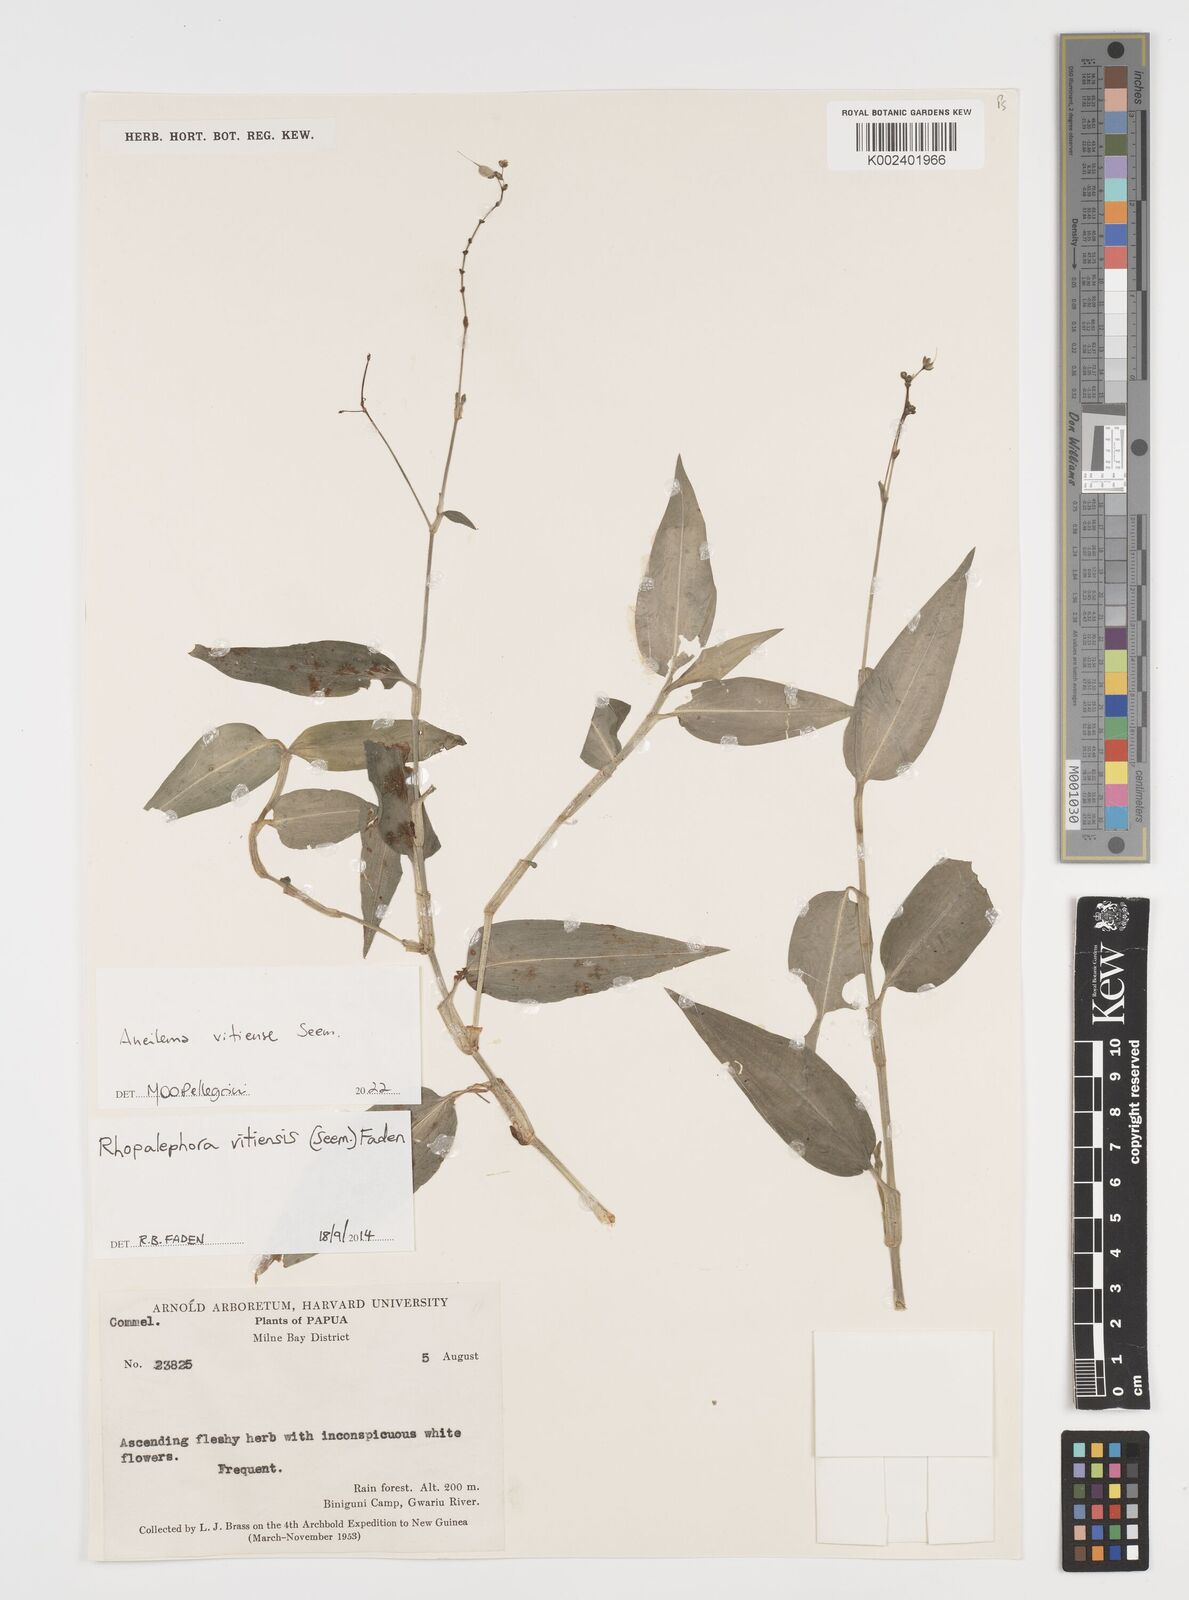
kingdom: Plantae
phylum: Tracheophyta
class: Liliopsida
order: Commelinales
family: Commelinaceae
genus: Rhopalephora
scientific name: Rhopalephora vitiensis
